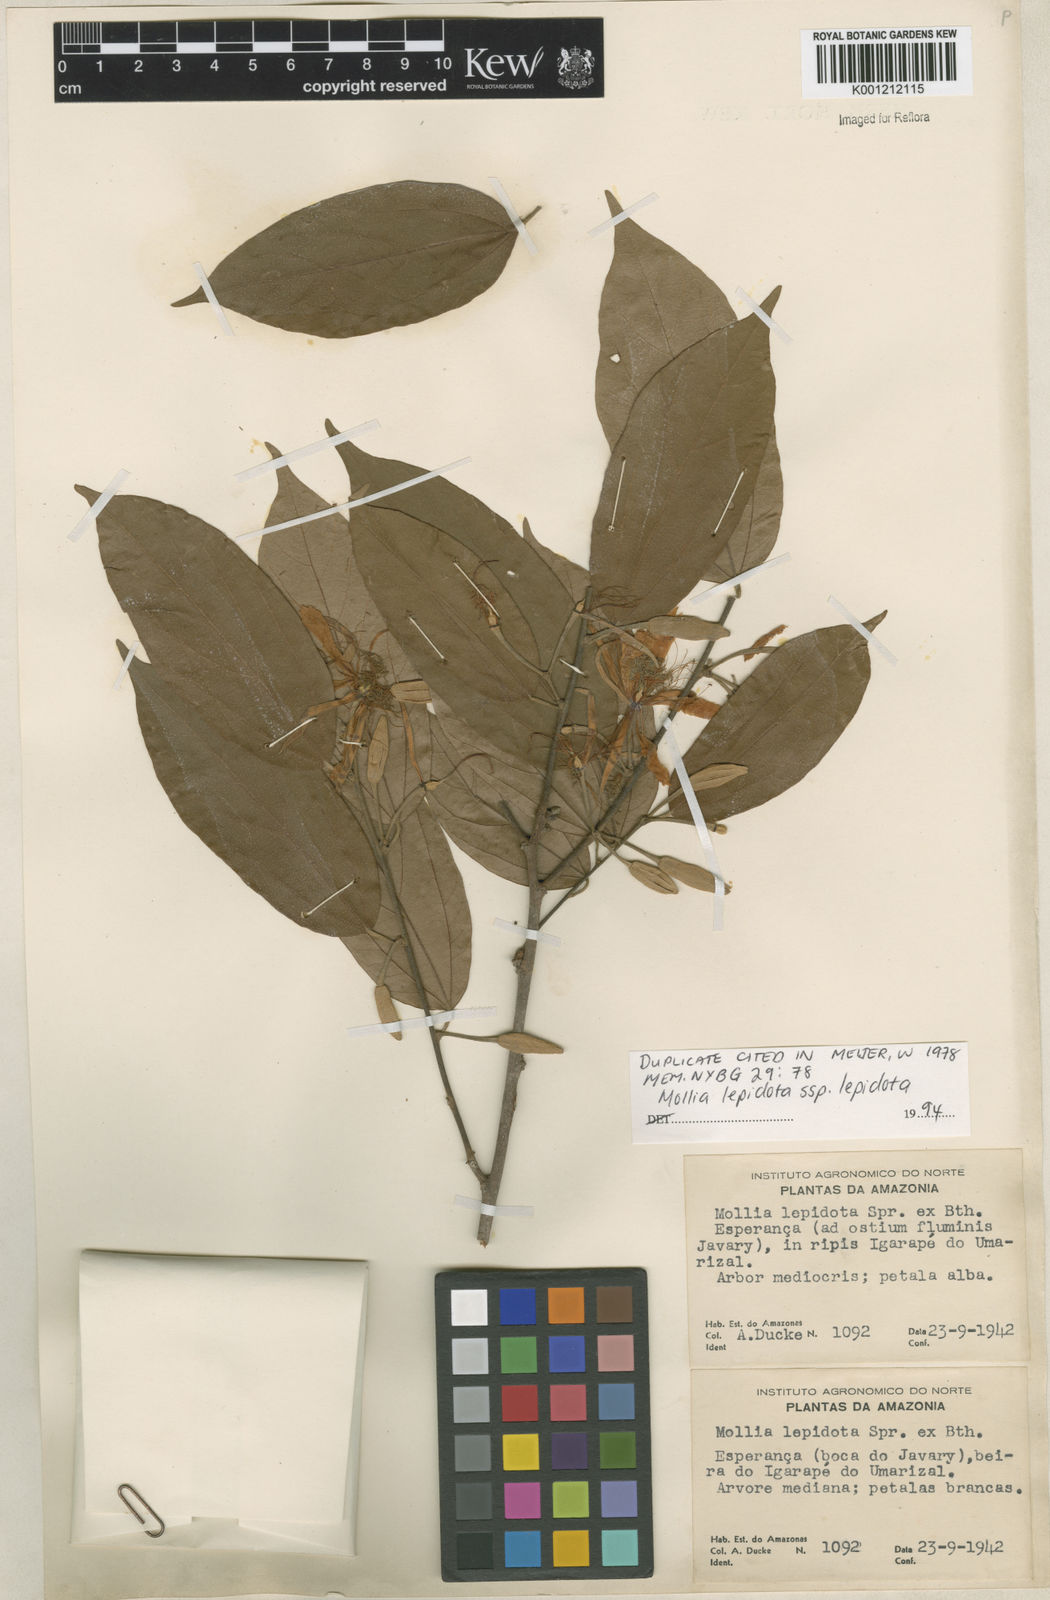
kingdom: Plantae
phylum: Tracheophyta
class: Magnoliopsida
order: Malvales
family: Malvaceae
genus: Mollia
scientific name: Mollia lepidota
